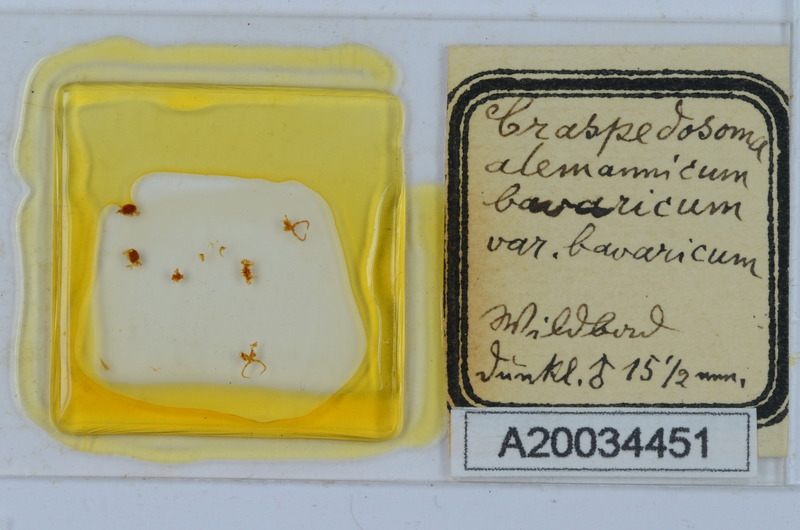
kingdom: Animalia
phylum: Arthropoda
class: Diplopoda
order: Chordeumatida
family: Craspedosomatidae
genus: Craspedosoma
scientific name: Craspedosoma rawlinsii
